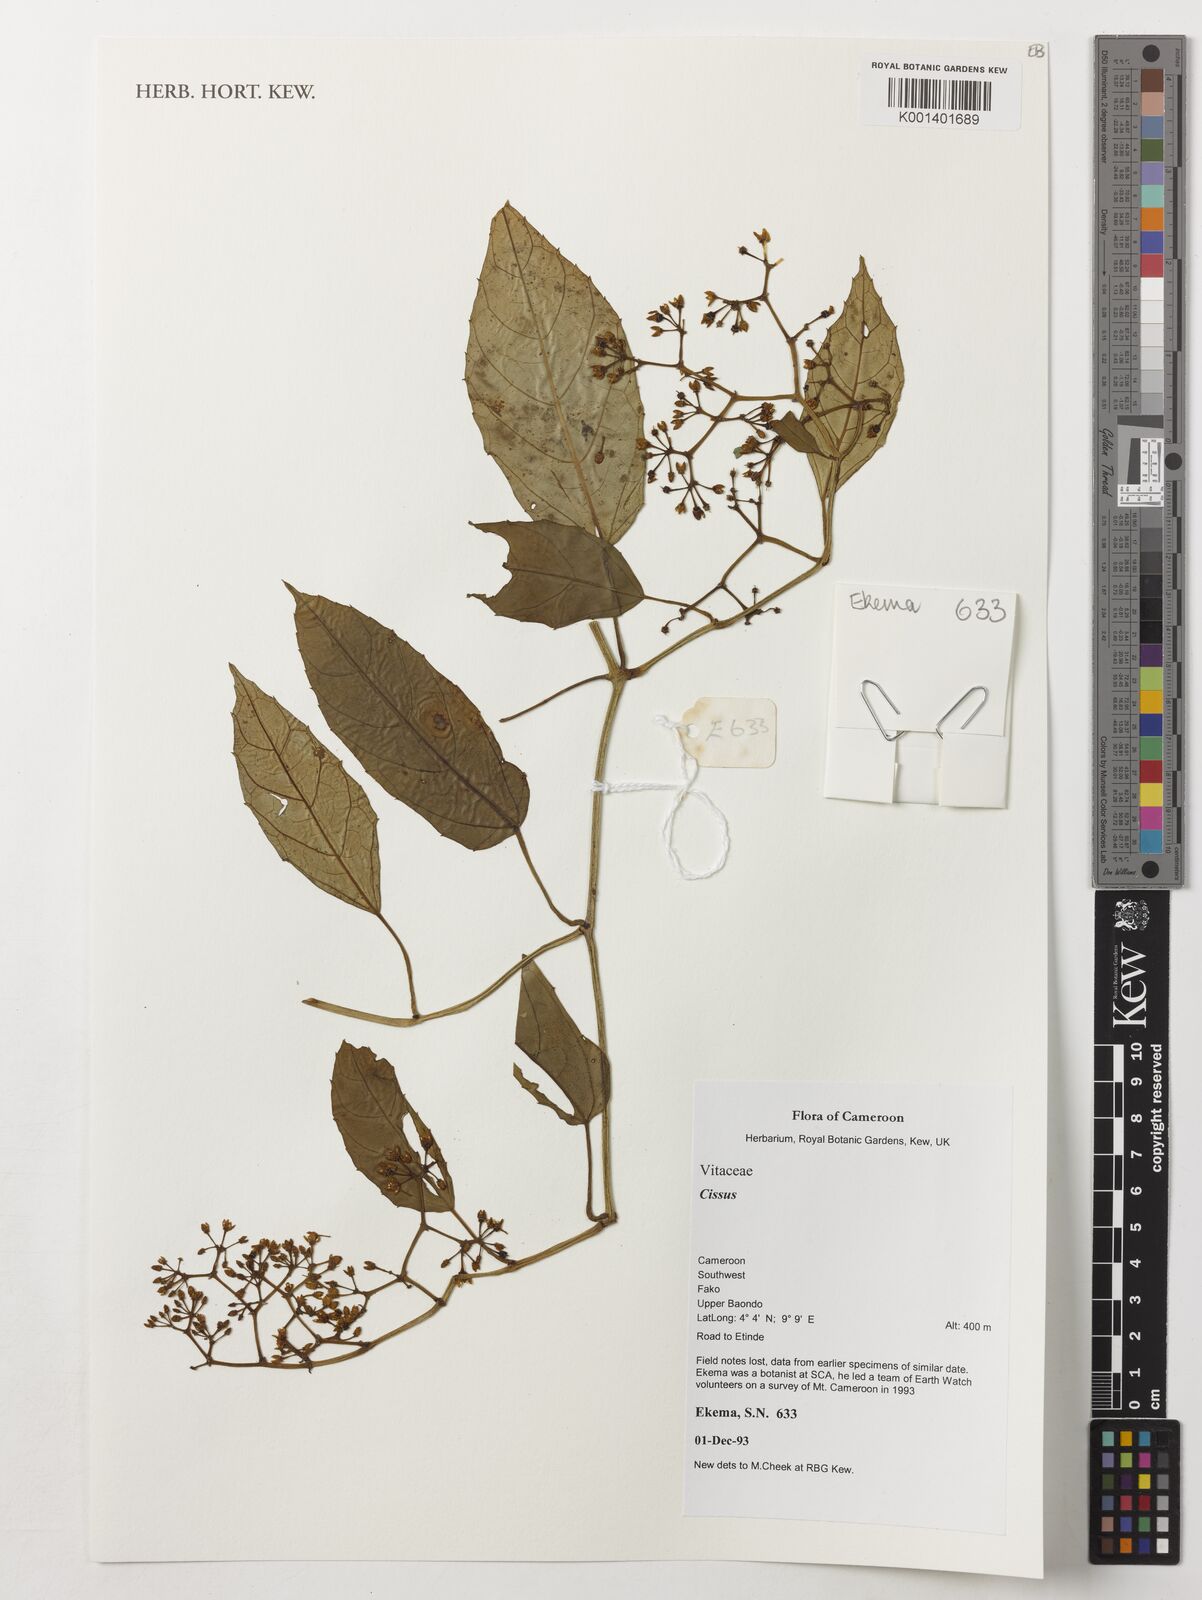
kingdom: Plantae
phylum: Tracheophyta
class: Magnoliopsida
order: Vitales
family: Vitaceae
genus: Cissus
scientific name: Cissus
